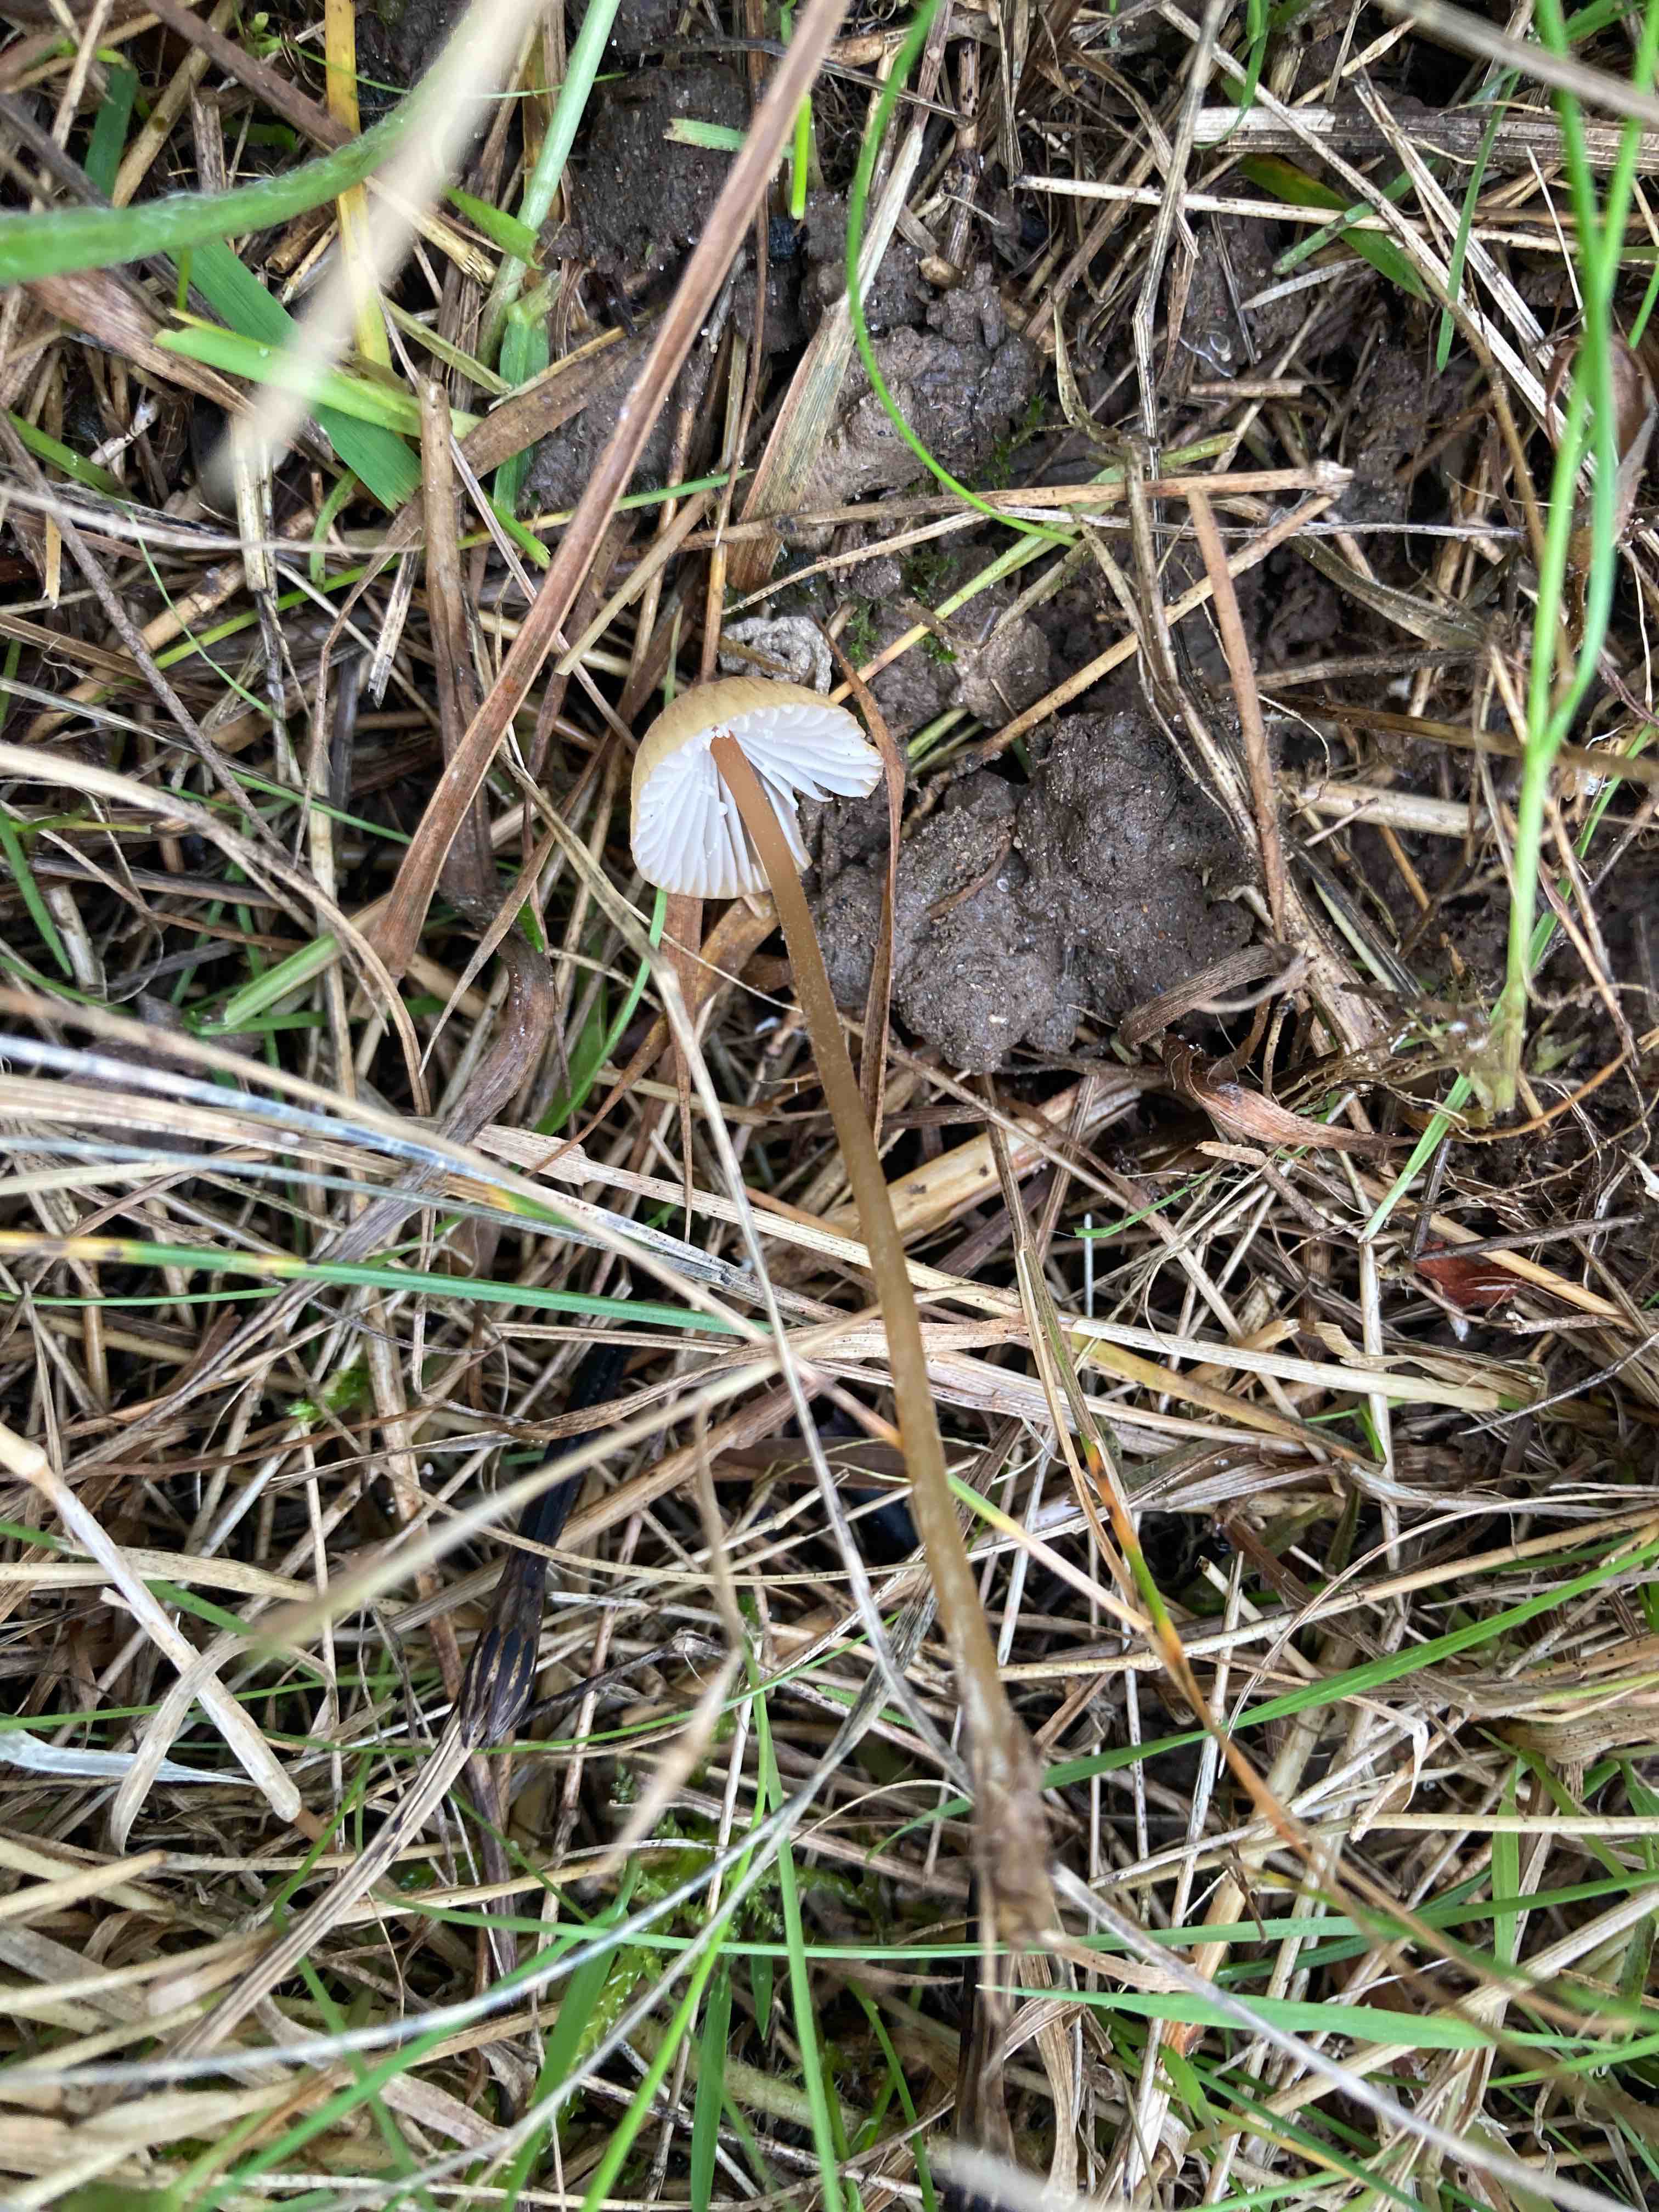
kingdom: Fungi
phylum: Basidiomycota
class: Agaricomycetes
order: Agaricales
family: Mycenaceae
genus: Mycena
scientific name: Mycena olivaceomarginata
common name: brunægget huesvamp
